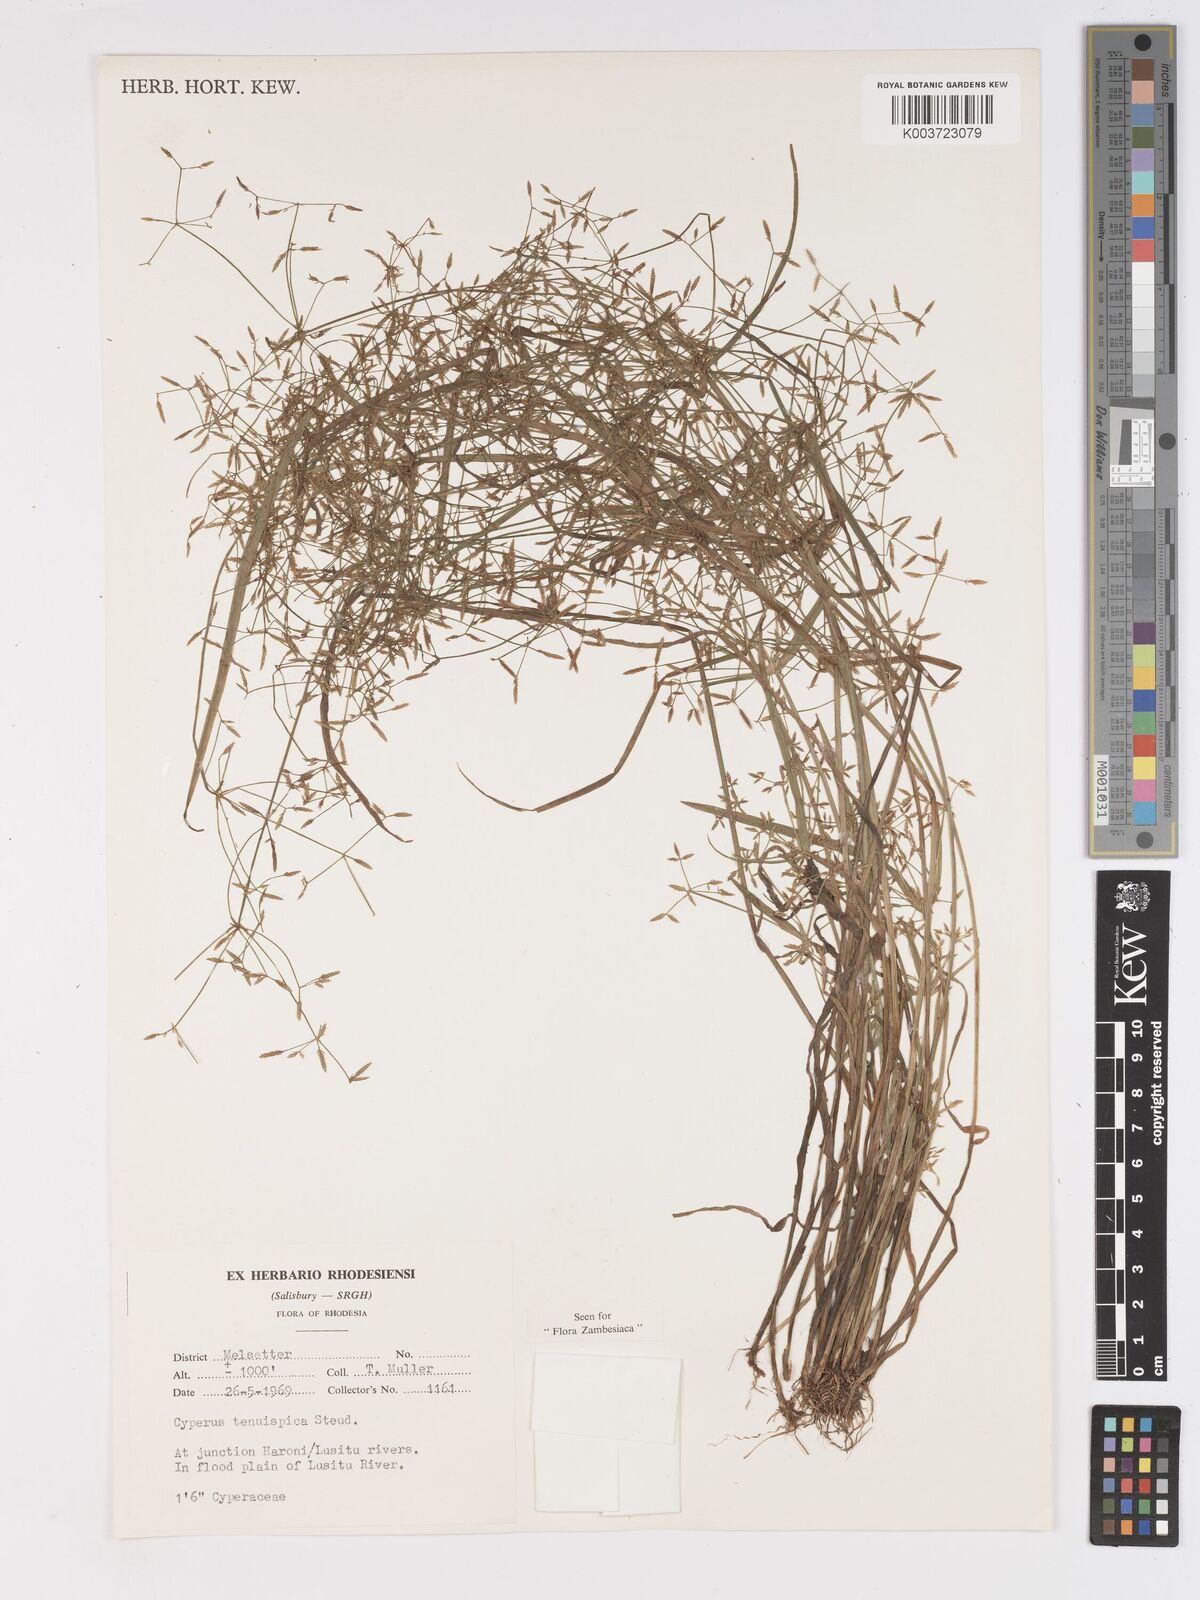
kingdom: Plantae
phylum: Tracheophyta
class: Liliopsida
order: Poales
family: Cyperaceae
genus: Cyperus
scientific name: Cyperus tenuispica
